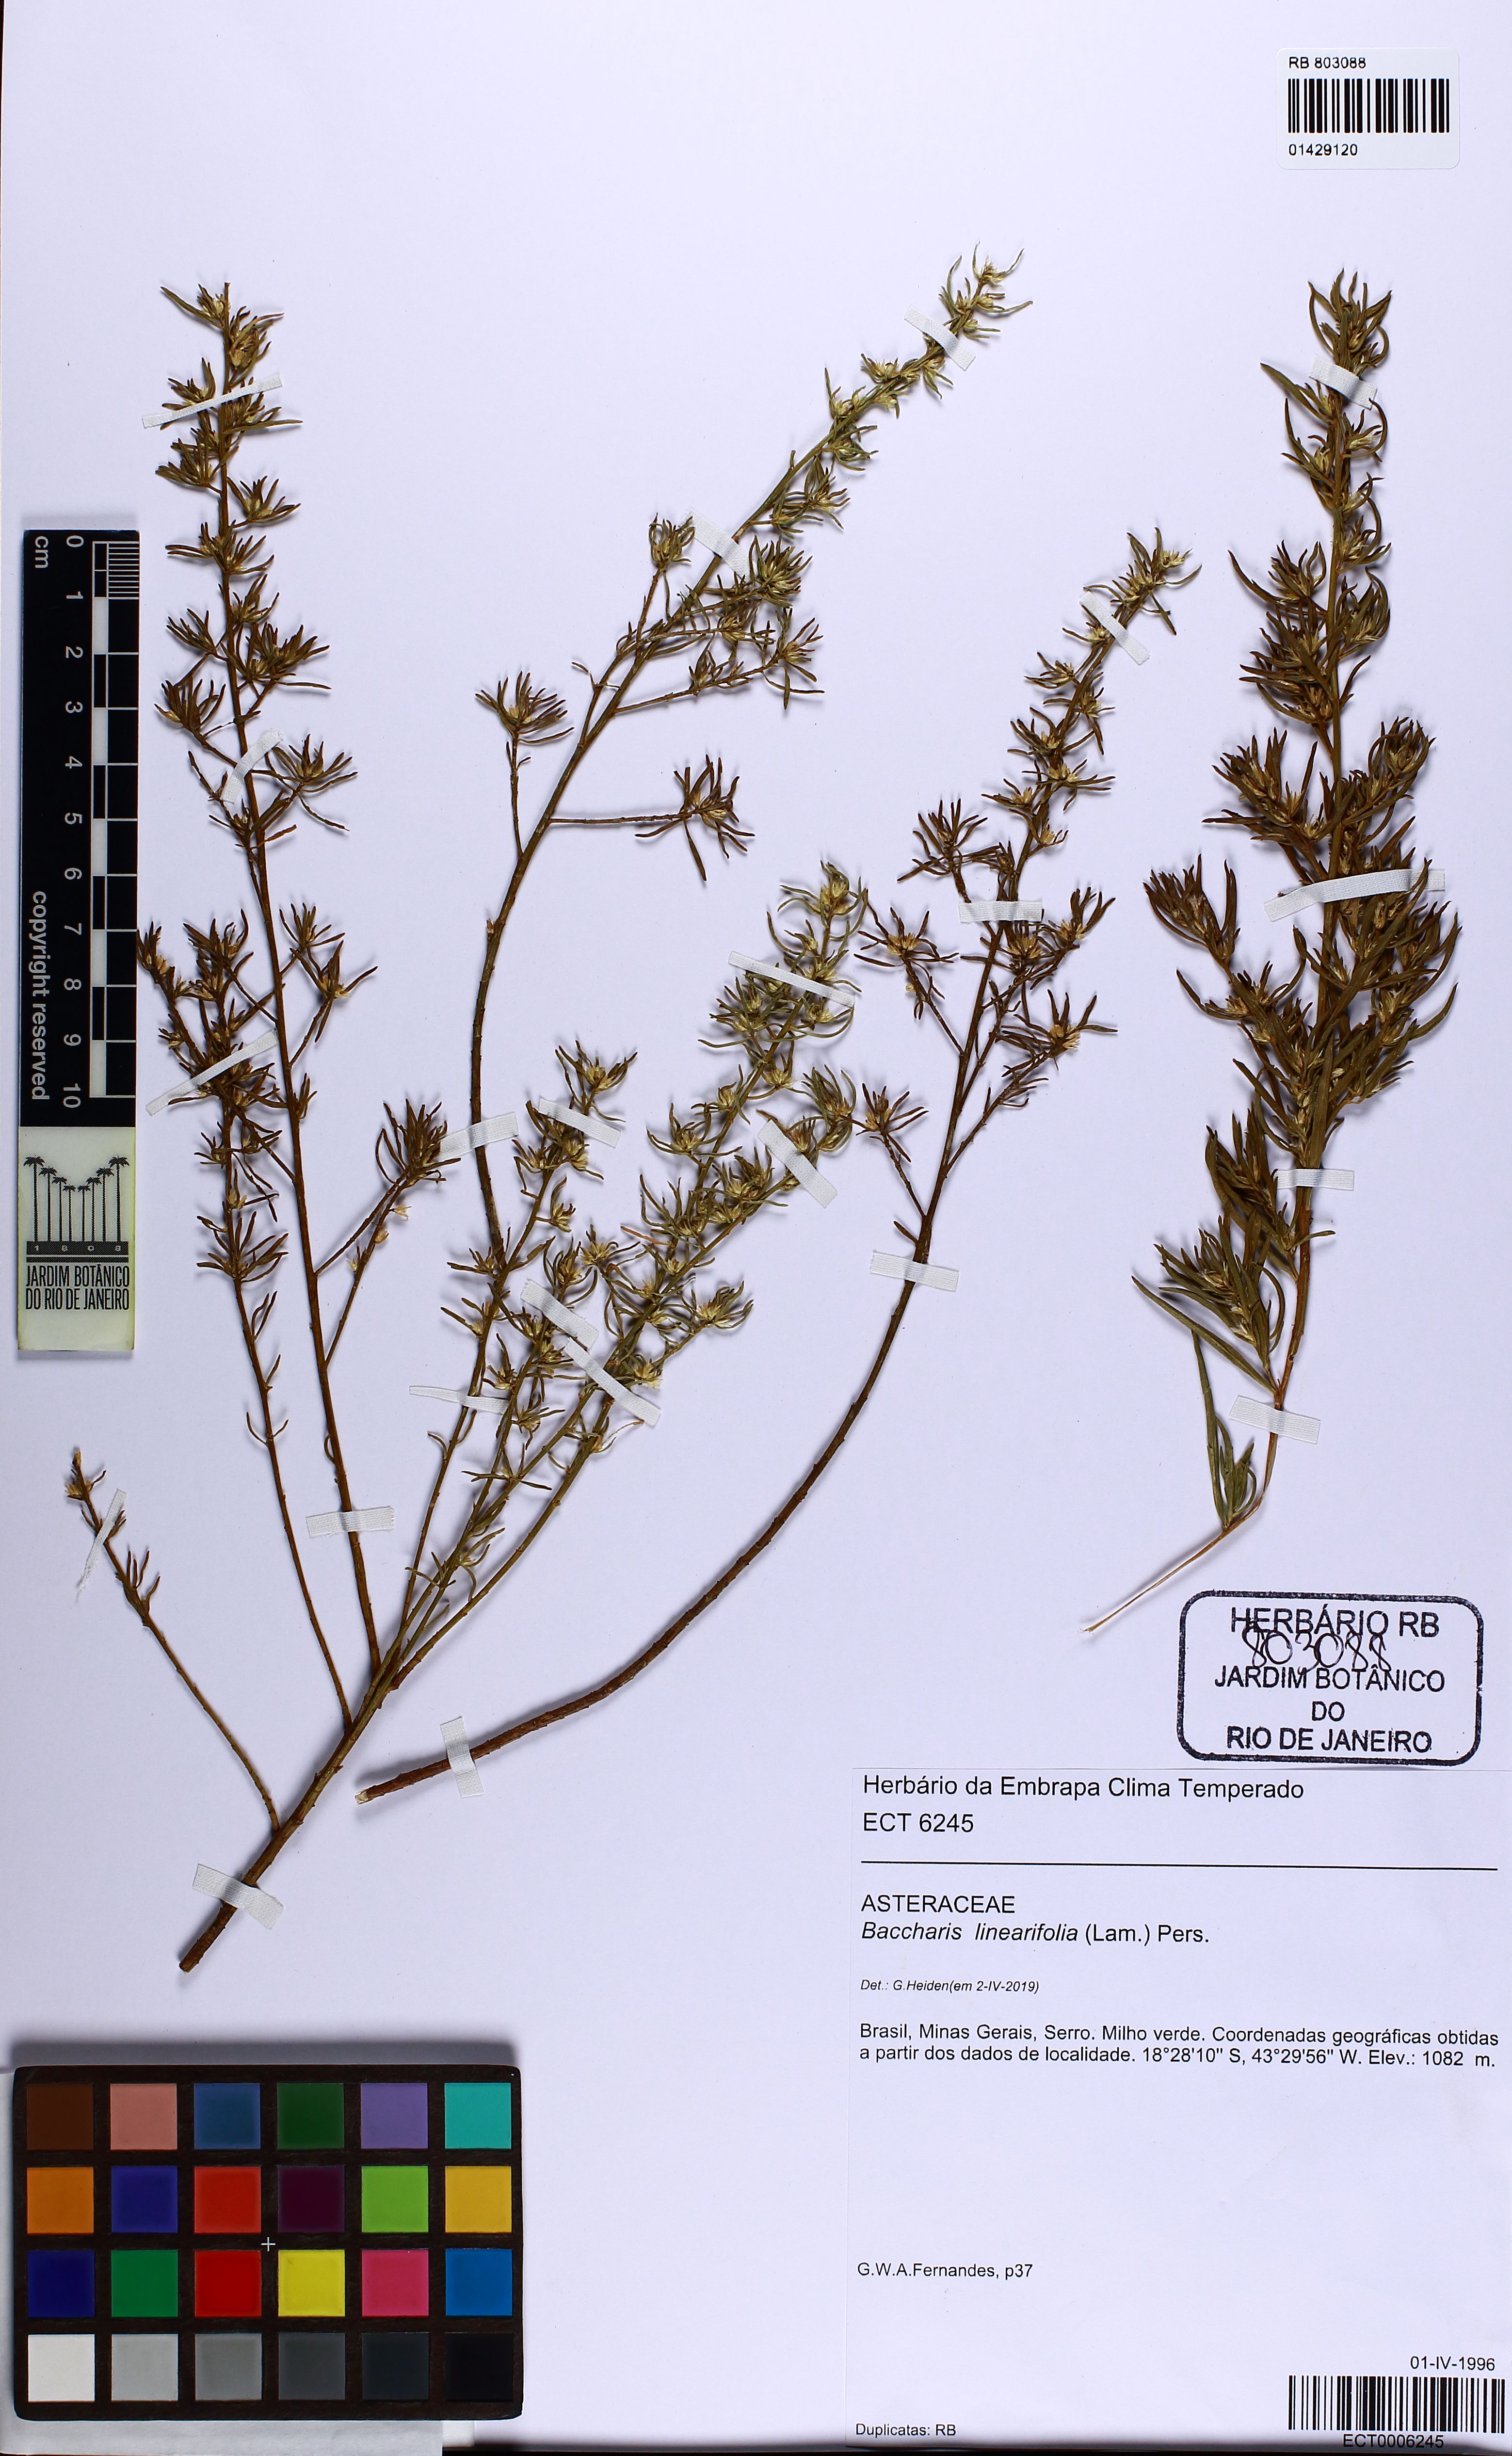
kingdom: Plantae
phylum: Tracheophyta
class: Magnoliopsida
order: Asterales
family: Asteraceae
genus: Baccharis
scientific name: Baccharis linearifolia
